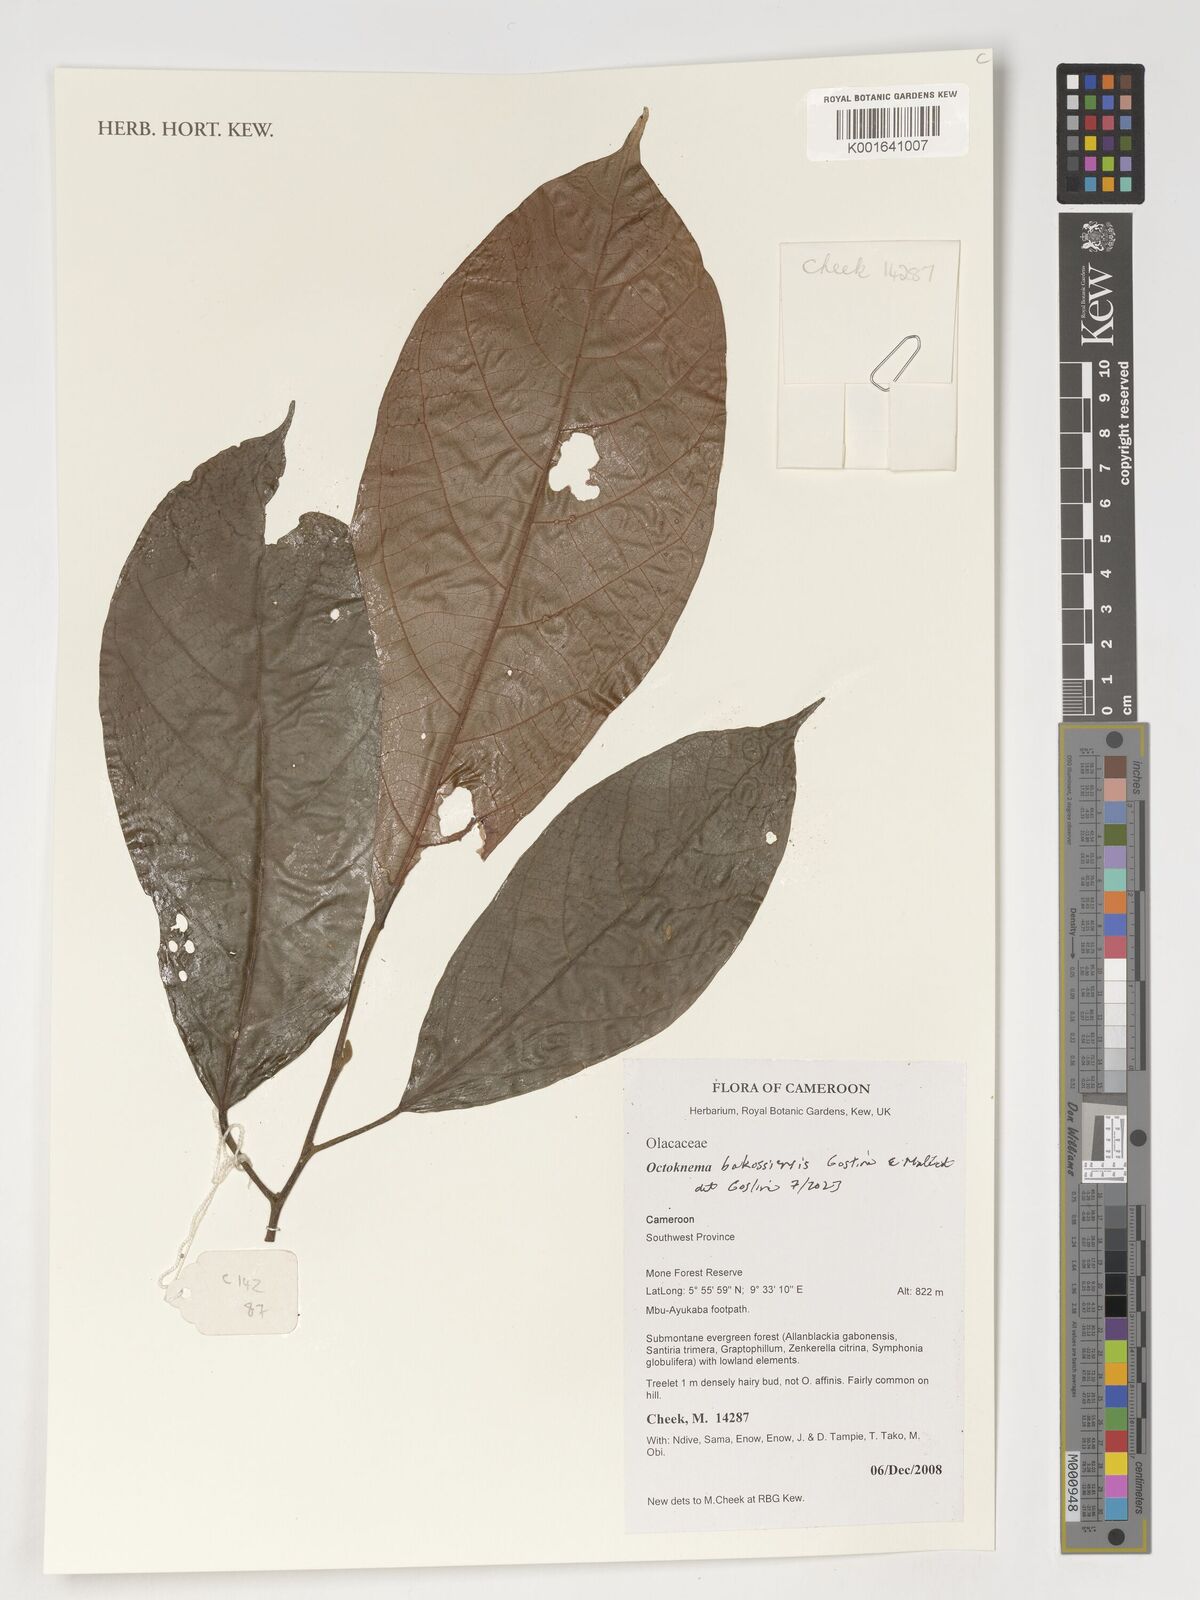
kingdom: Plantae
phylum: Tracheophyta
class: Magnoliopsida
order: Santalales
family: Octoknemaceae
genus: Octoknema
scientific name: Octoknema bakossiensis
